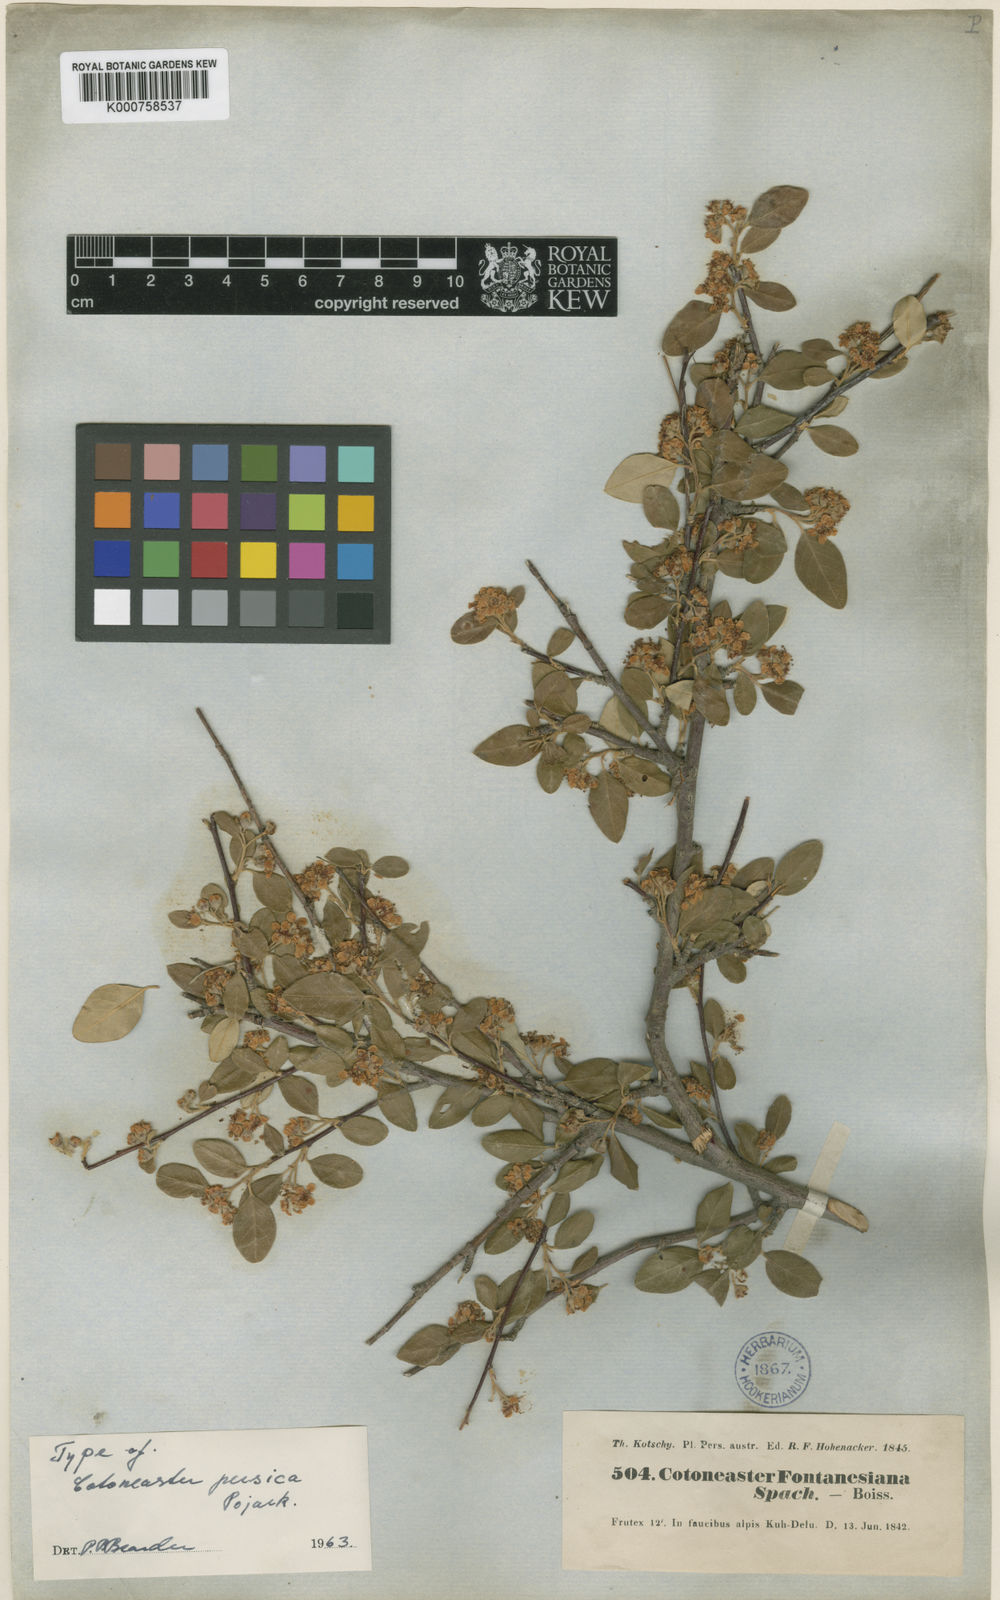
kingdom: Plantae
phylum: Tracheophyta
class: Magnoliopsida
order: Rosales
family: Rosaceae
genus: Cotoneaster
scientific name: Cotoneaster persicus
